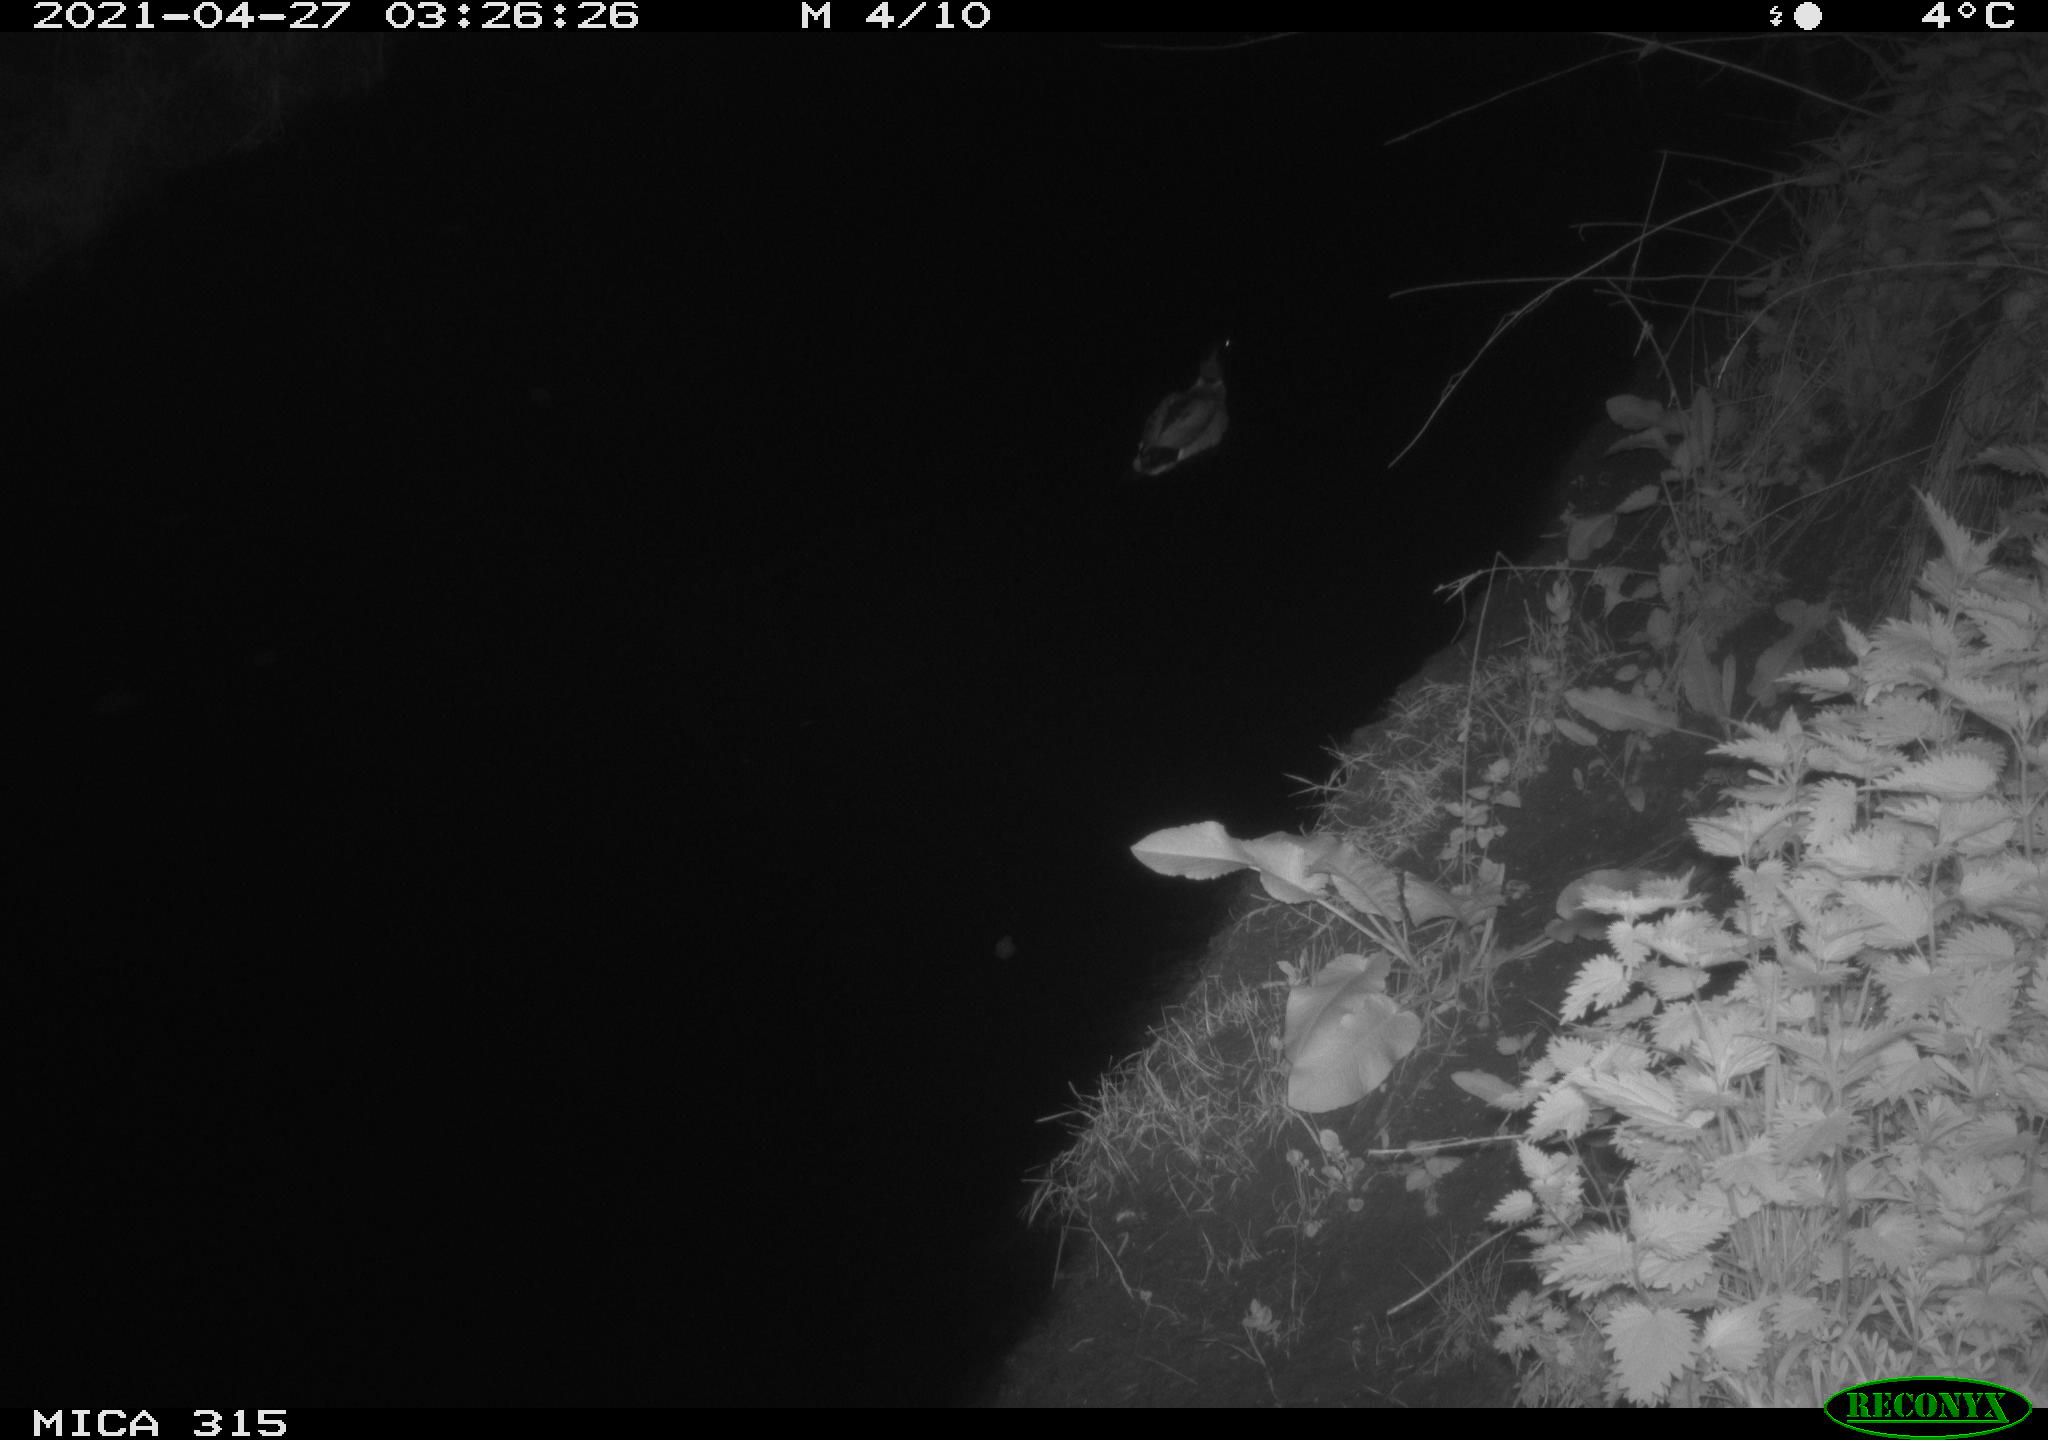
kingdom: Animalia
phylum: Chordata
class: Aves
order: Anseriformes
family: Anatidae
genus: Anas
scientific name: Anas
